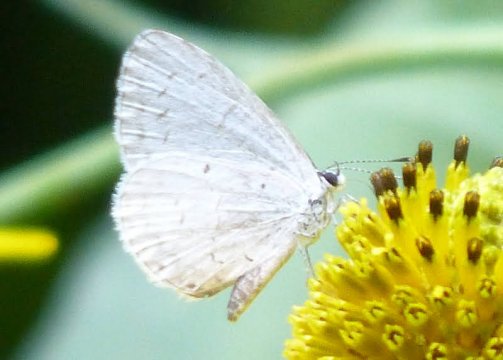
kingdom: Animalia
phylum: Arthropoda
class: Insecta
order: Lepidoptera
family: Lycaenidae
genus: Cyaniris
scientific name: Cyaniris neglecta
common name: Summer Azure
